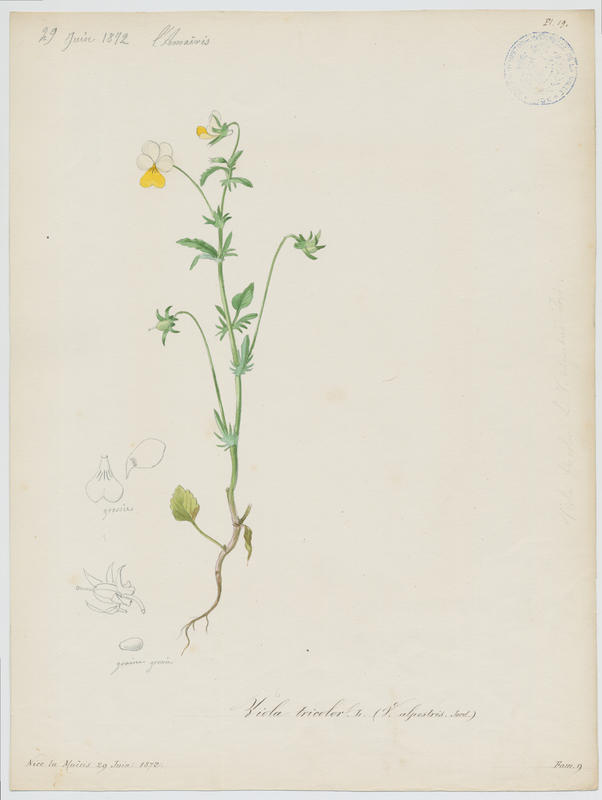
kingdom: Plantae
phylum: Tracheophyta
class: Magnoliopsida
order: Malpighiales
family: Violaceae
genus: Viola
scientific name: Viola tricolor
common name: Pansy
